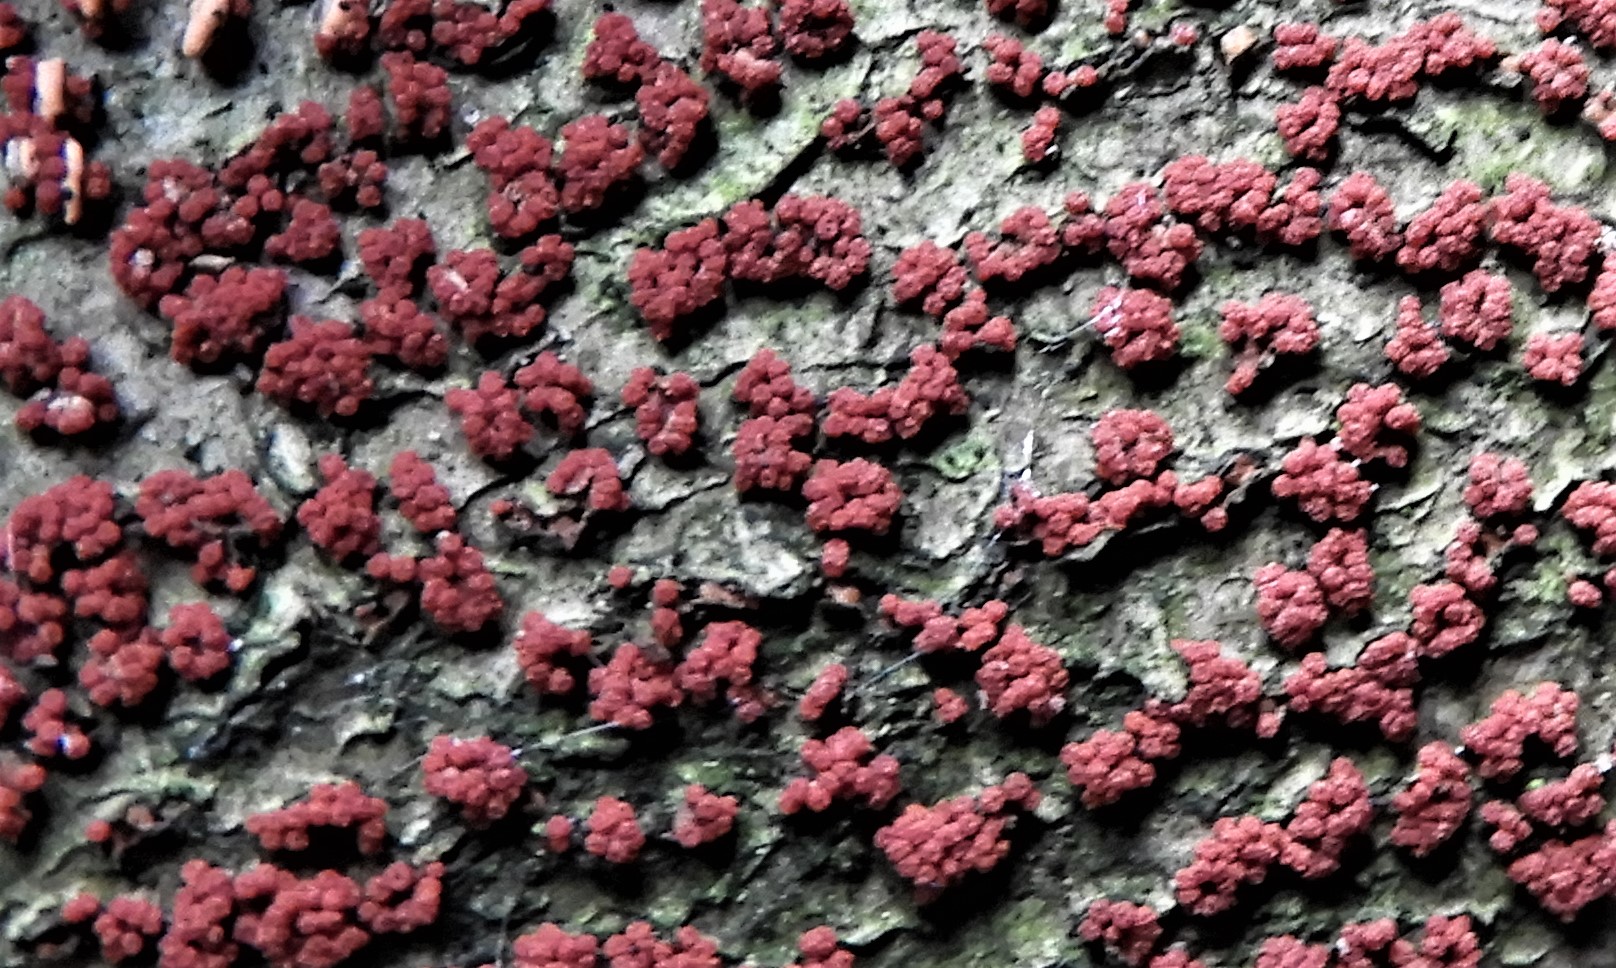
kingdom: Fungi
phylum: Ascomycota
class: Sordariomycetes
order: Hypocreales
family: Nectriaceae
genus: Nectria
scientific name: Nectria cinnabarina
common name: almindelig cinnobersvamp
